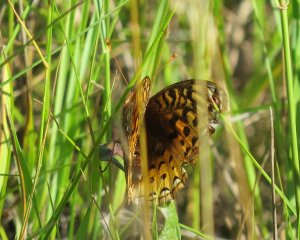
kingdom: Animalia
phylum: Arthropoda
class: Insecta
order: Lepidoptera
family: Nymphalidae
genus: Speyeria
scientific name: Speyeria cybele
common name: Great Spangled Fritillary
